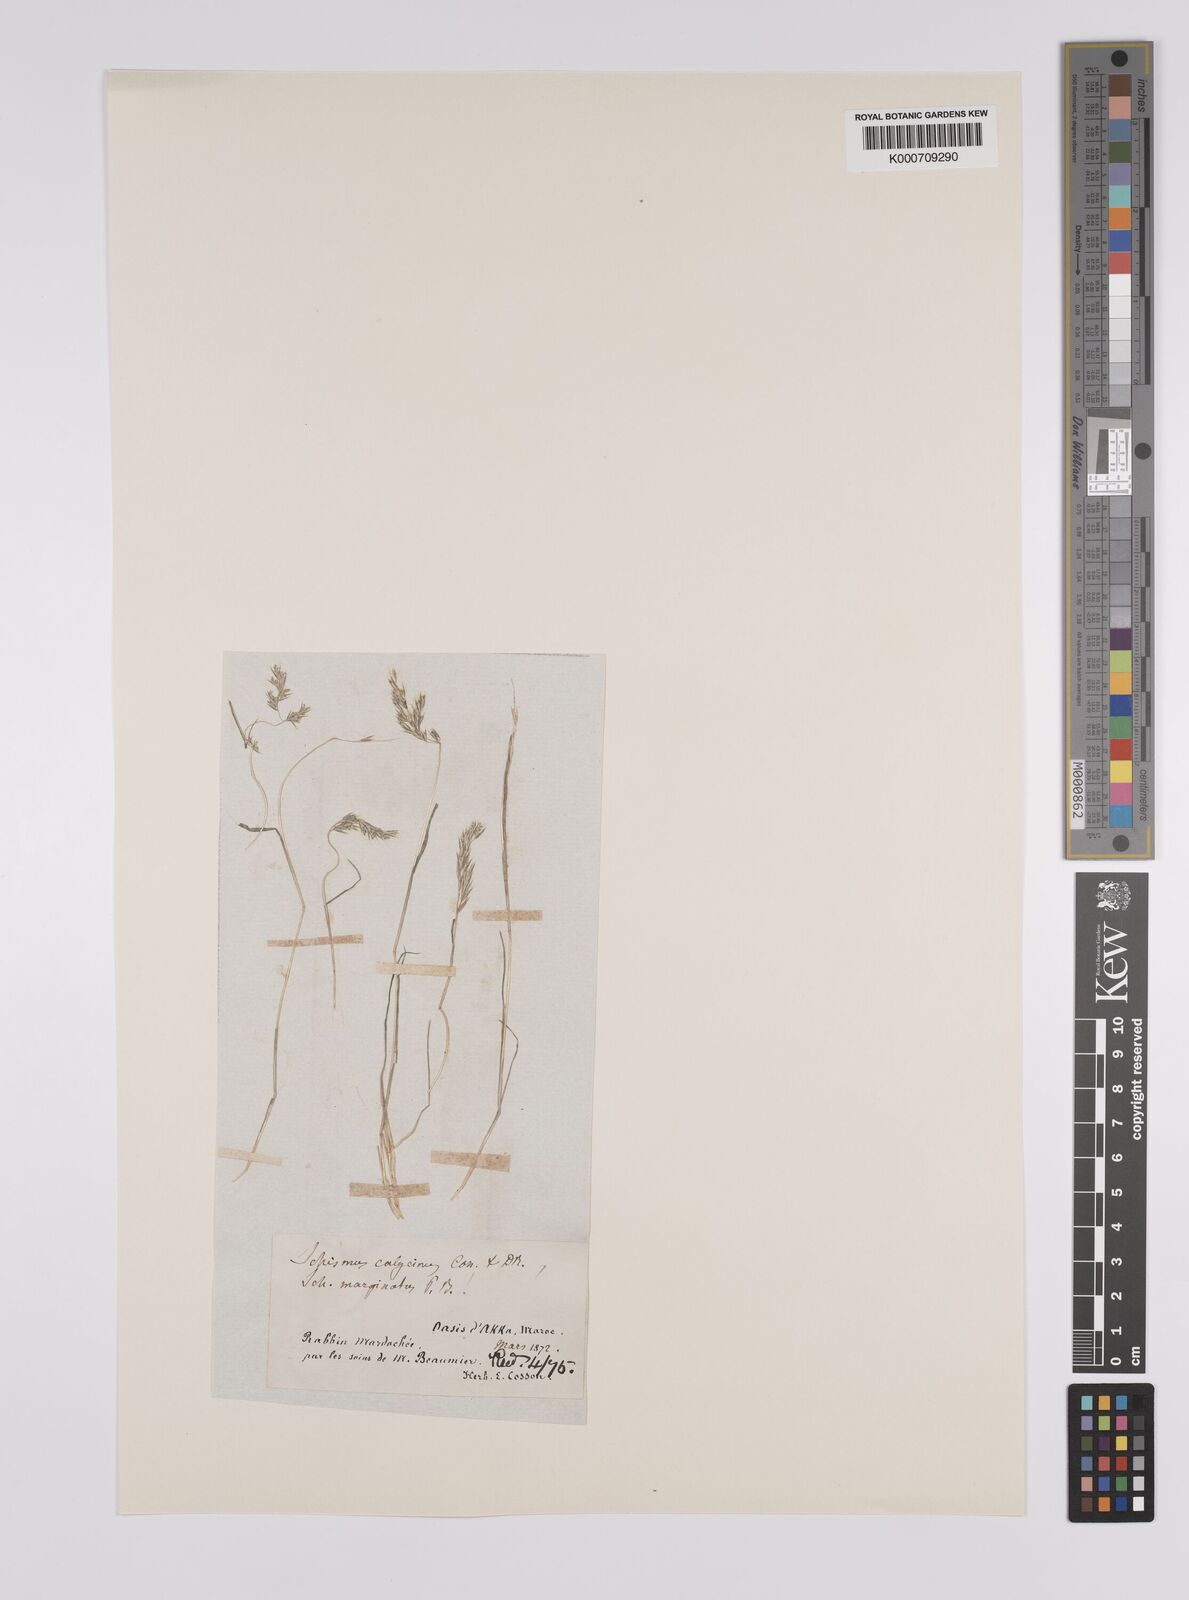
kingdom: Plantae
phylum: Tracheophyta
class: Liliopsida
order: Poales
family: Poaceae
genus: Schismus
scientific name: Schismus barbatus
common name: Kelch-grass
